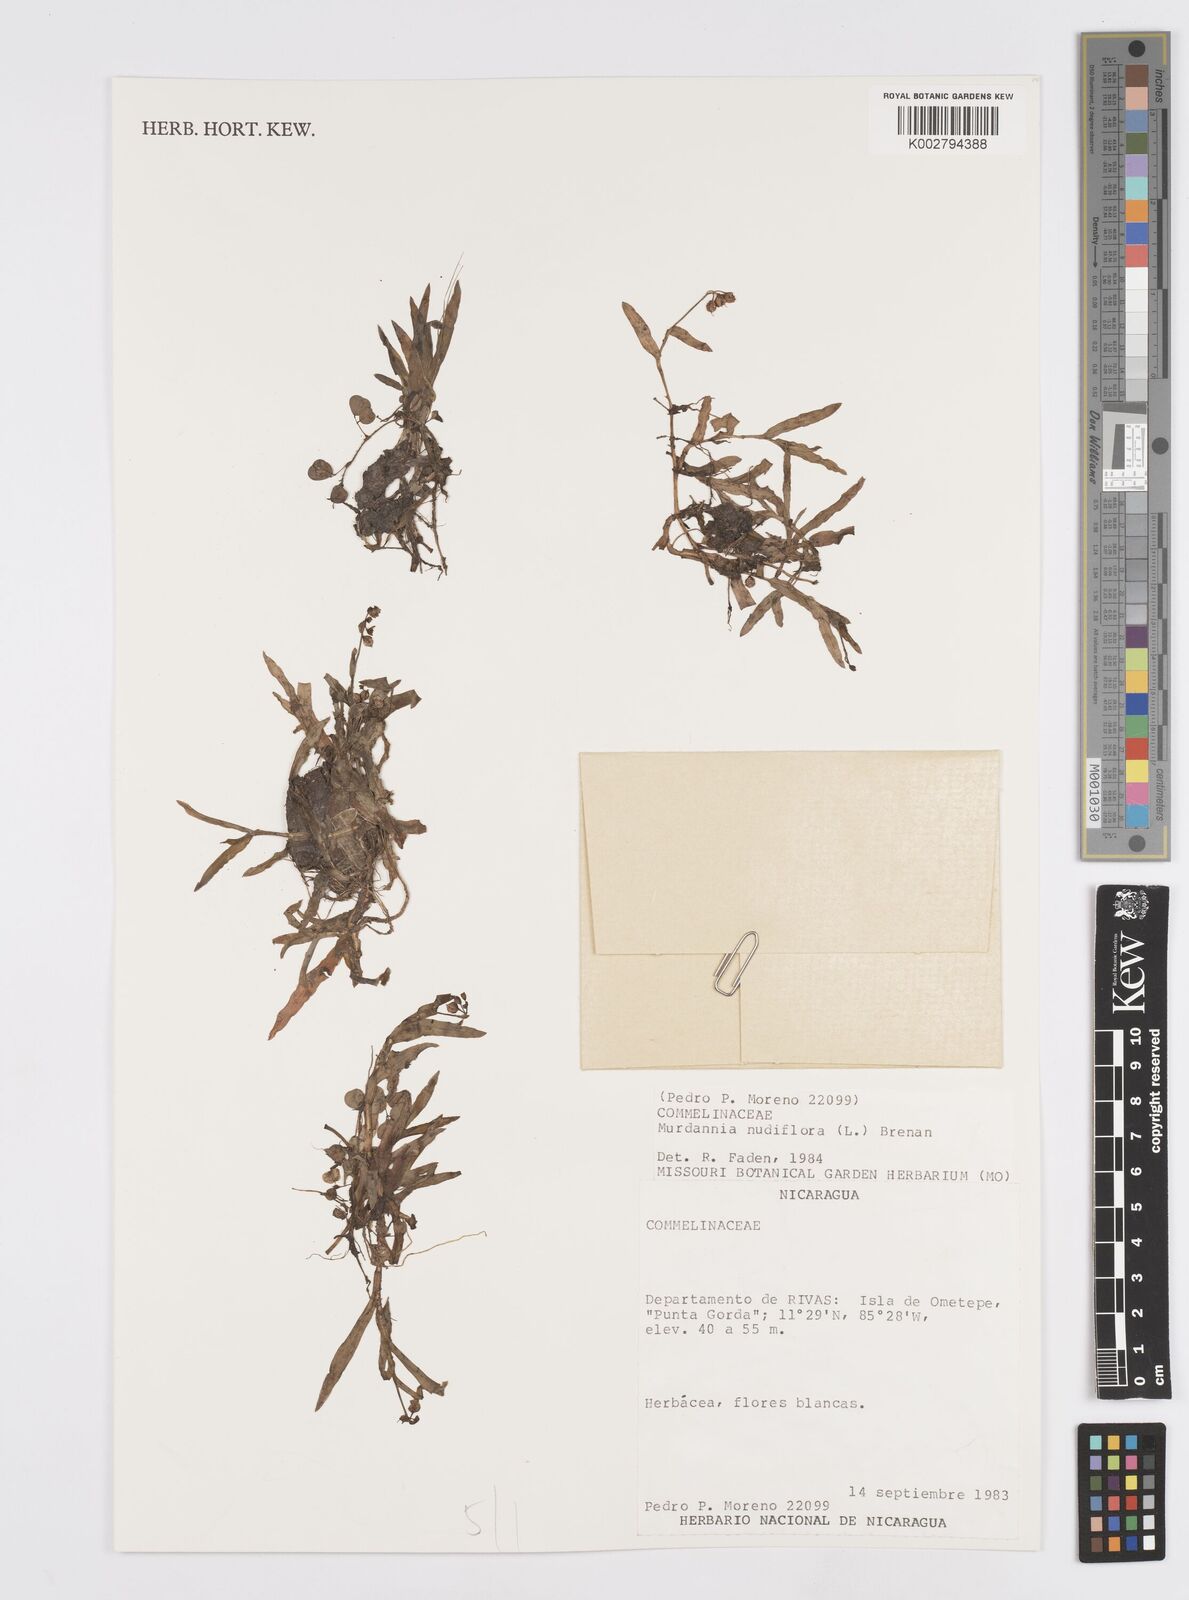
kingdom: Plantae
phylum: Tracheophyta
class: Liliopsida
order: Commelinales
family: Commelinaceae
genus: Murdannia
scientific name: Murdannia nudiflora
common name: Nakedstem dewflower
